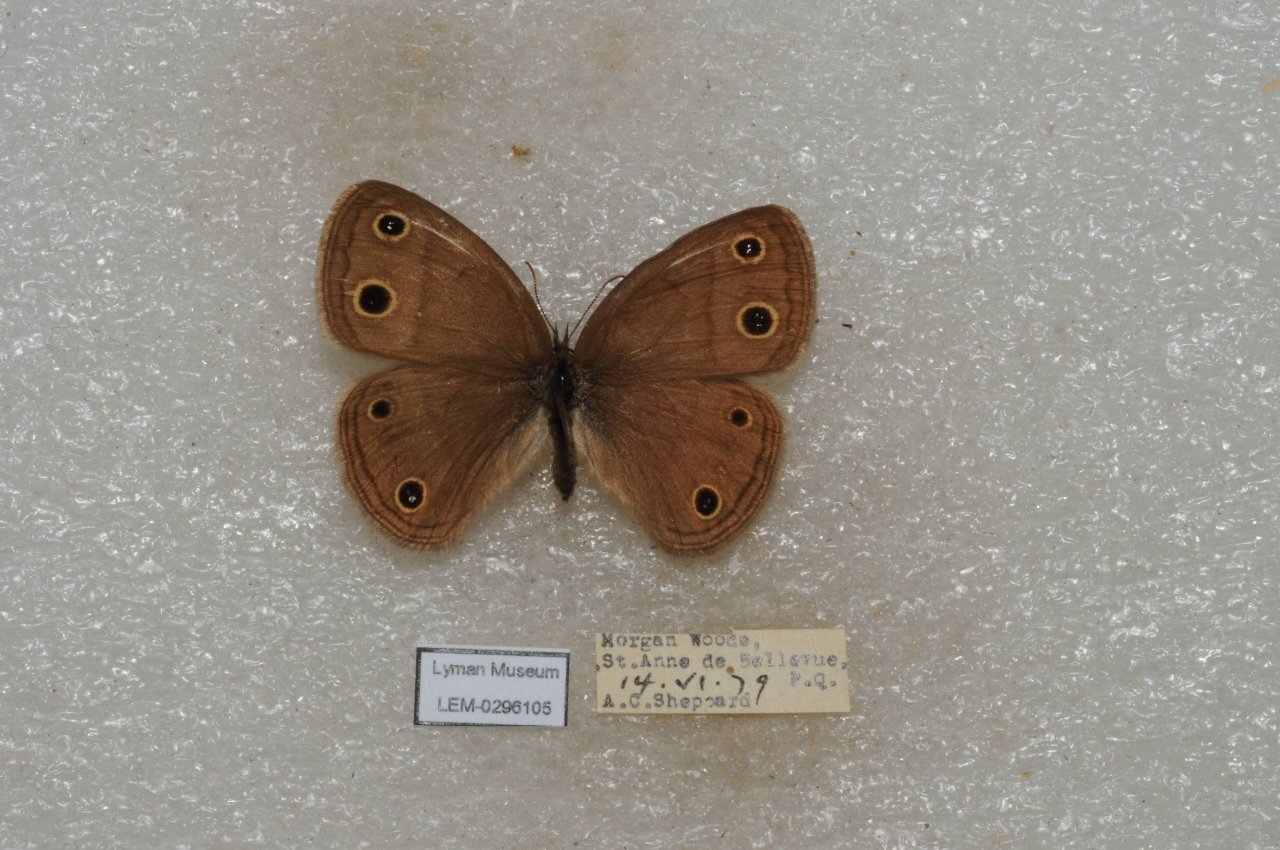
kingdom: Animalia
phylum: Arthropoda
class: Insecta
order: Lepidoptera
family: Nymphalidae
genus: Euptychia
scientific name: Euptychia cymela
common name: Little Wood Satyr
